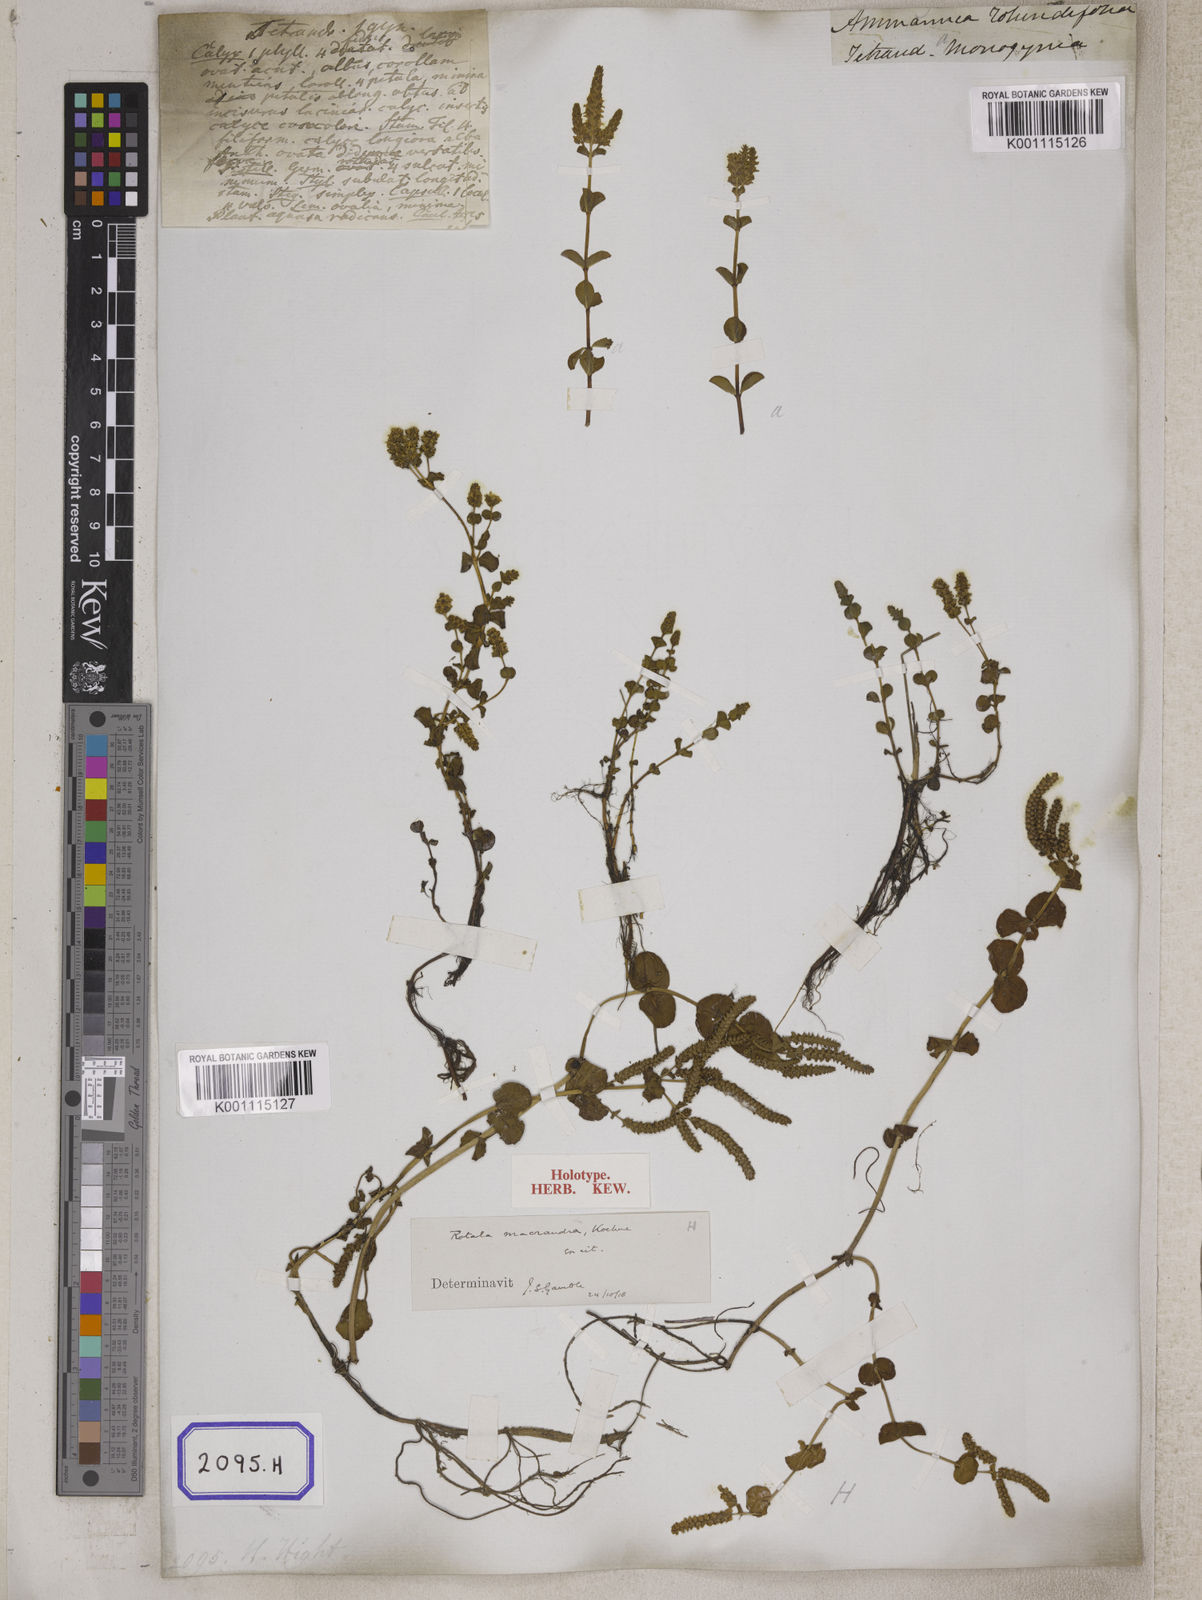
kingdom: Plantae
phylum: Tracheophyta
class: Magnoliopsida
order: Myrtales
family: Lythraceae
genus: Ammannia
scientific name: Ammannia
